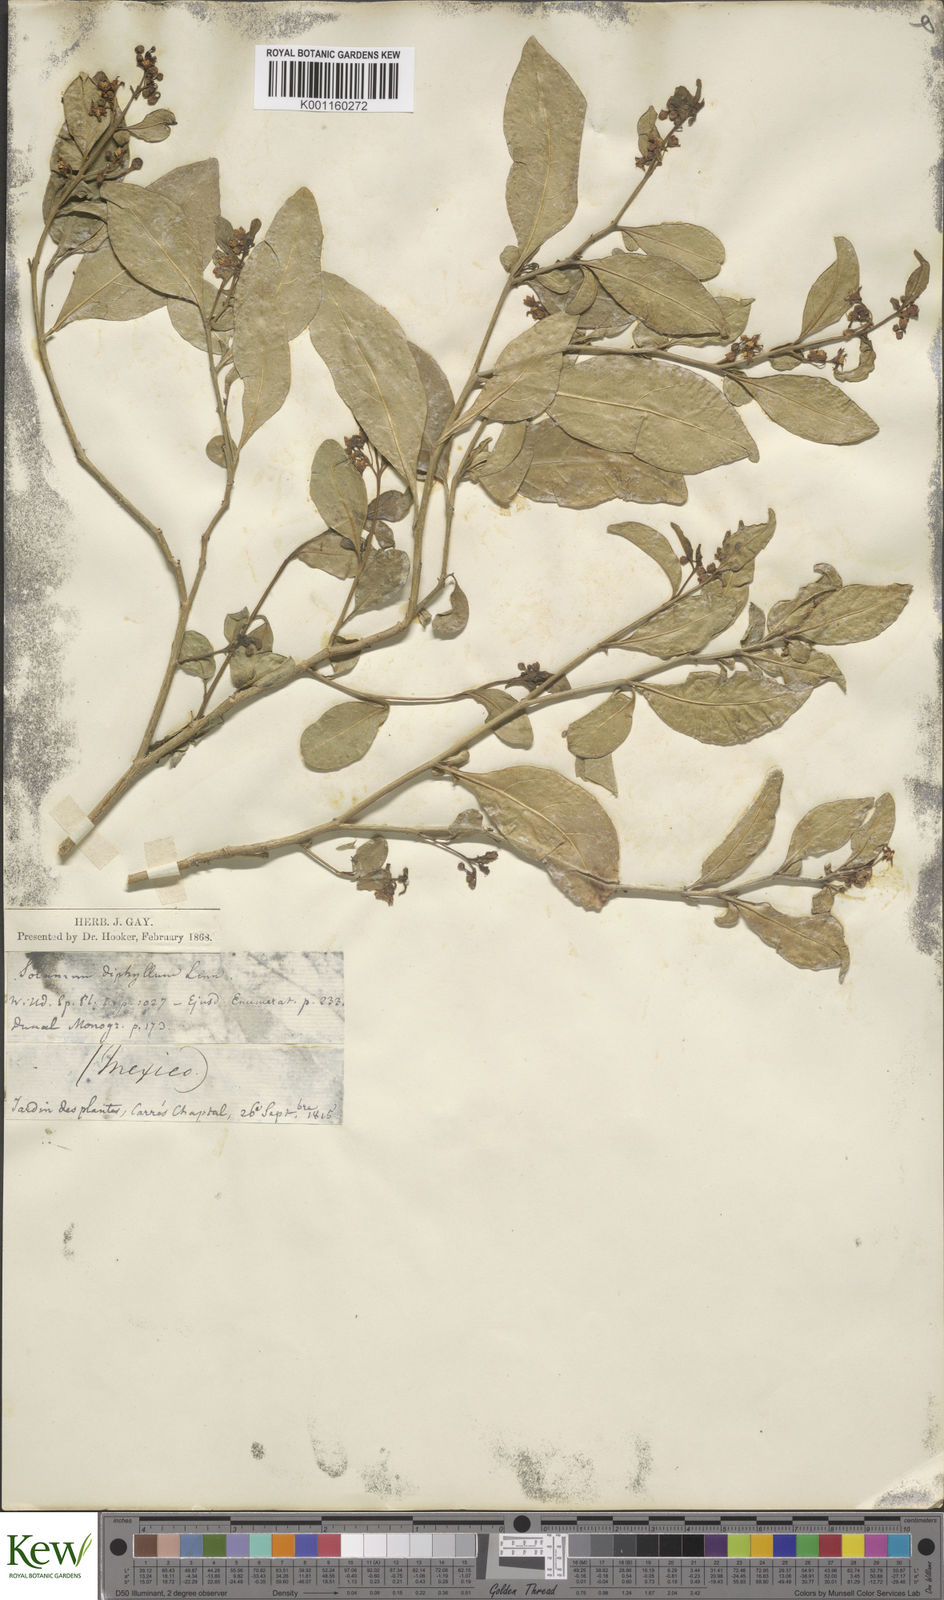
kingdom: Plantae
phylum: Tracheophyta
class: Magnoliopsida
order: Solanales
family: Solanaceae
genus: Solanum
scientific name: Solanum diphyllum
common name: Twoleaf nightshade
